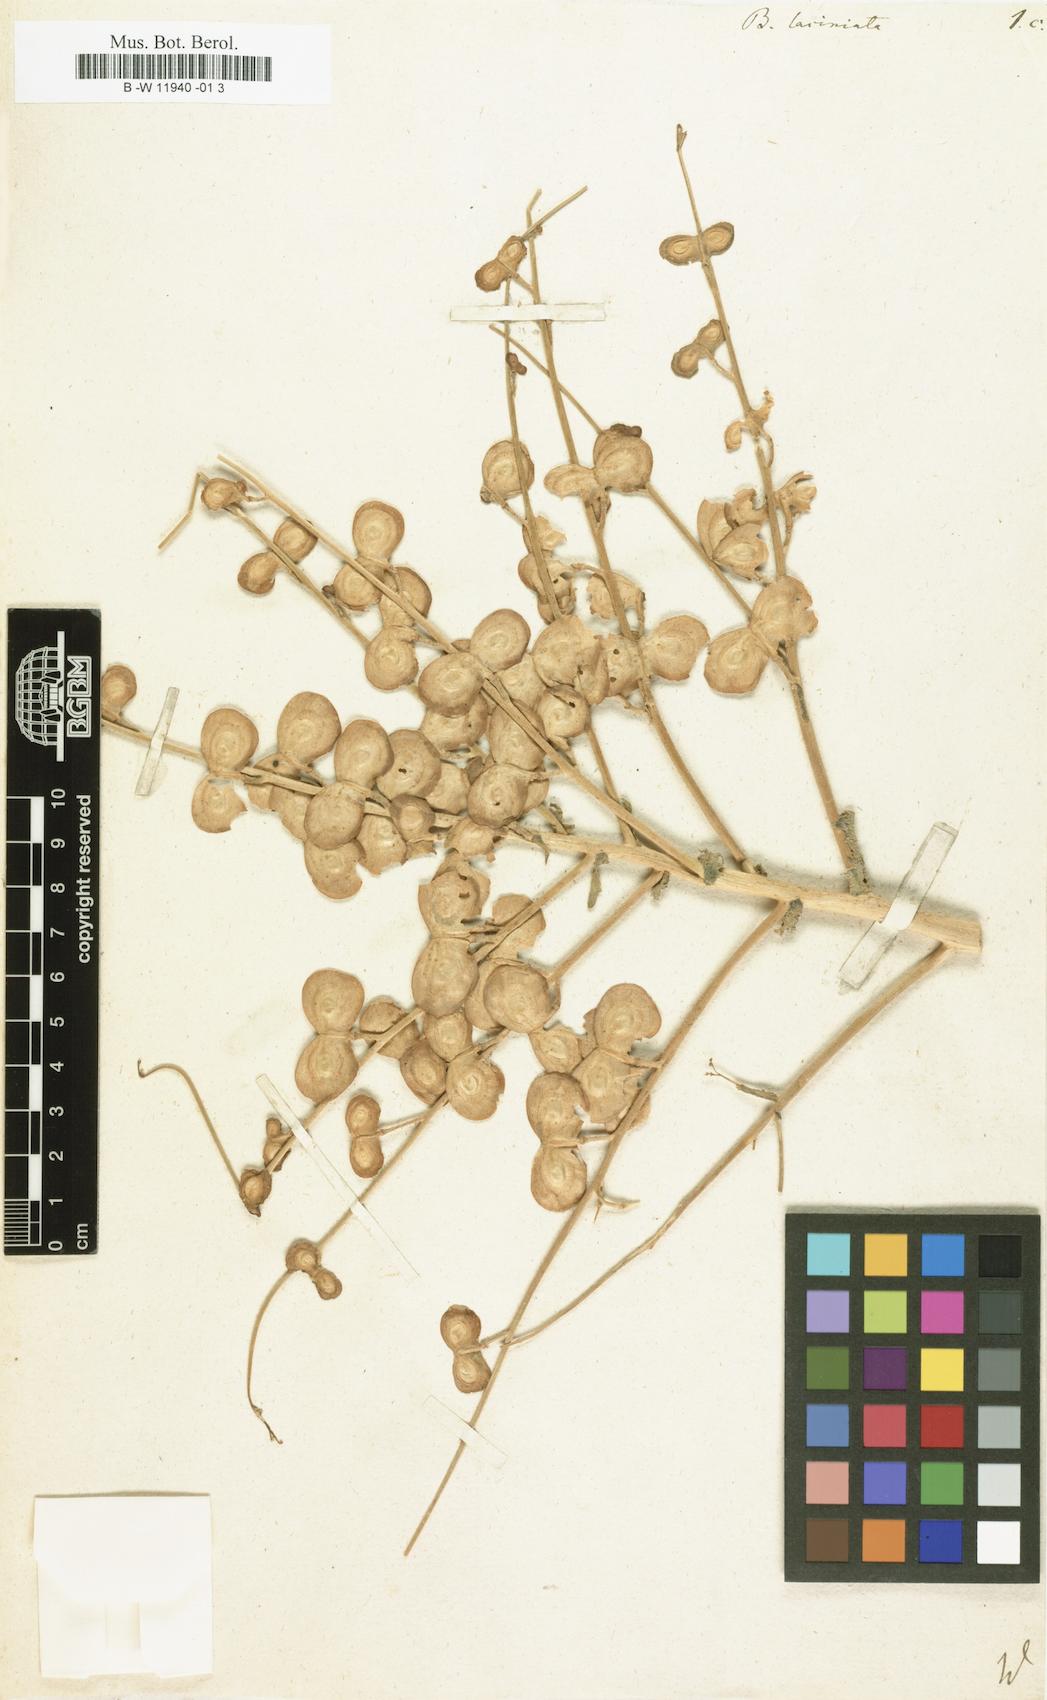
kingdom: Plantae
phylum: Tracheophyta
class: Magnoliopsida
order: Brassicales
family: Brassicaceae
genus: Megacarpaea
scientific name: Megacarpaea megalocarpa
